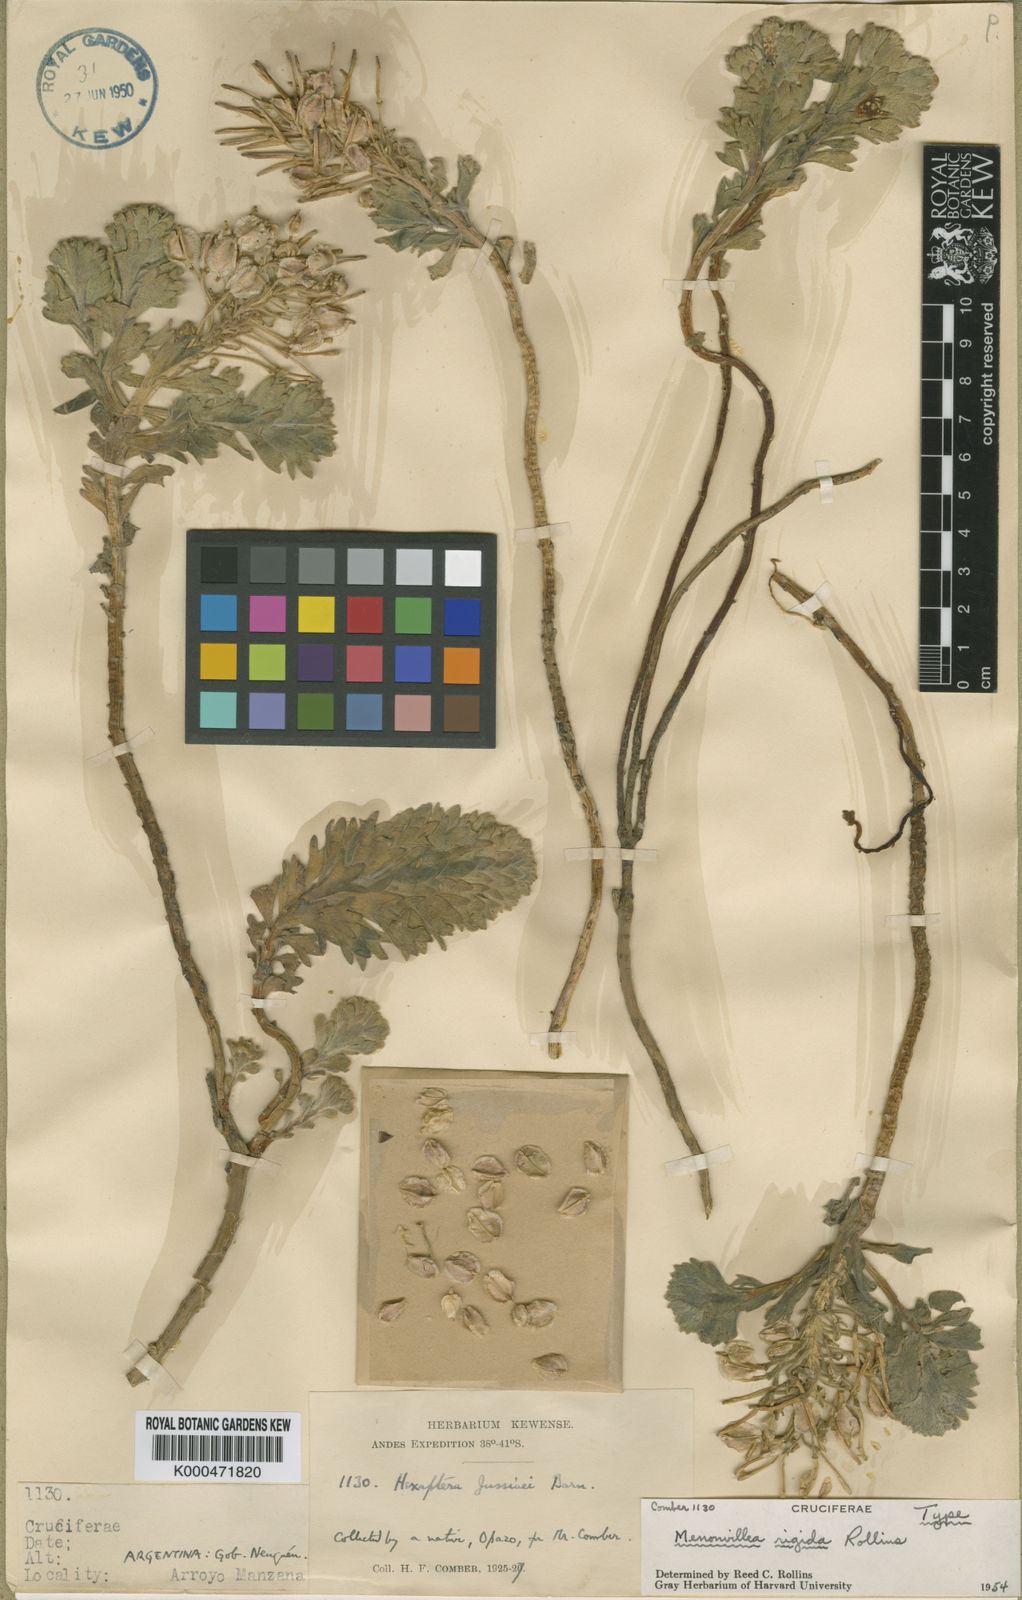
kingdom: Plantae
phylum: Tracheophyta
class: Magnoliopsida
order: Brassicales
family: Brassicaceae
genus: Menonvillea
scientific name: Menonvillea rigida
